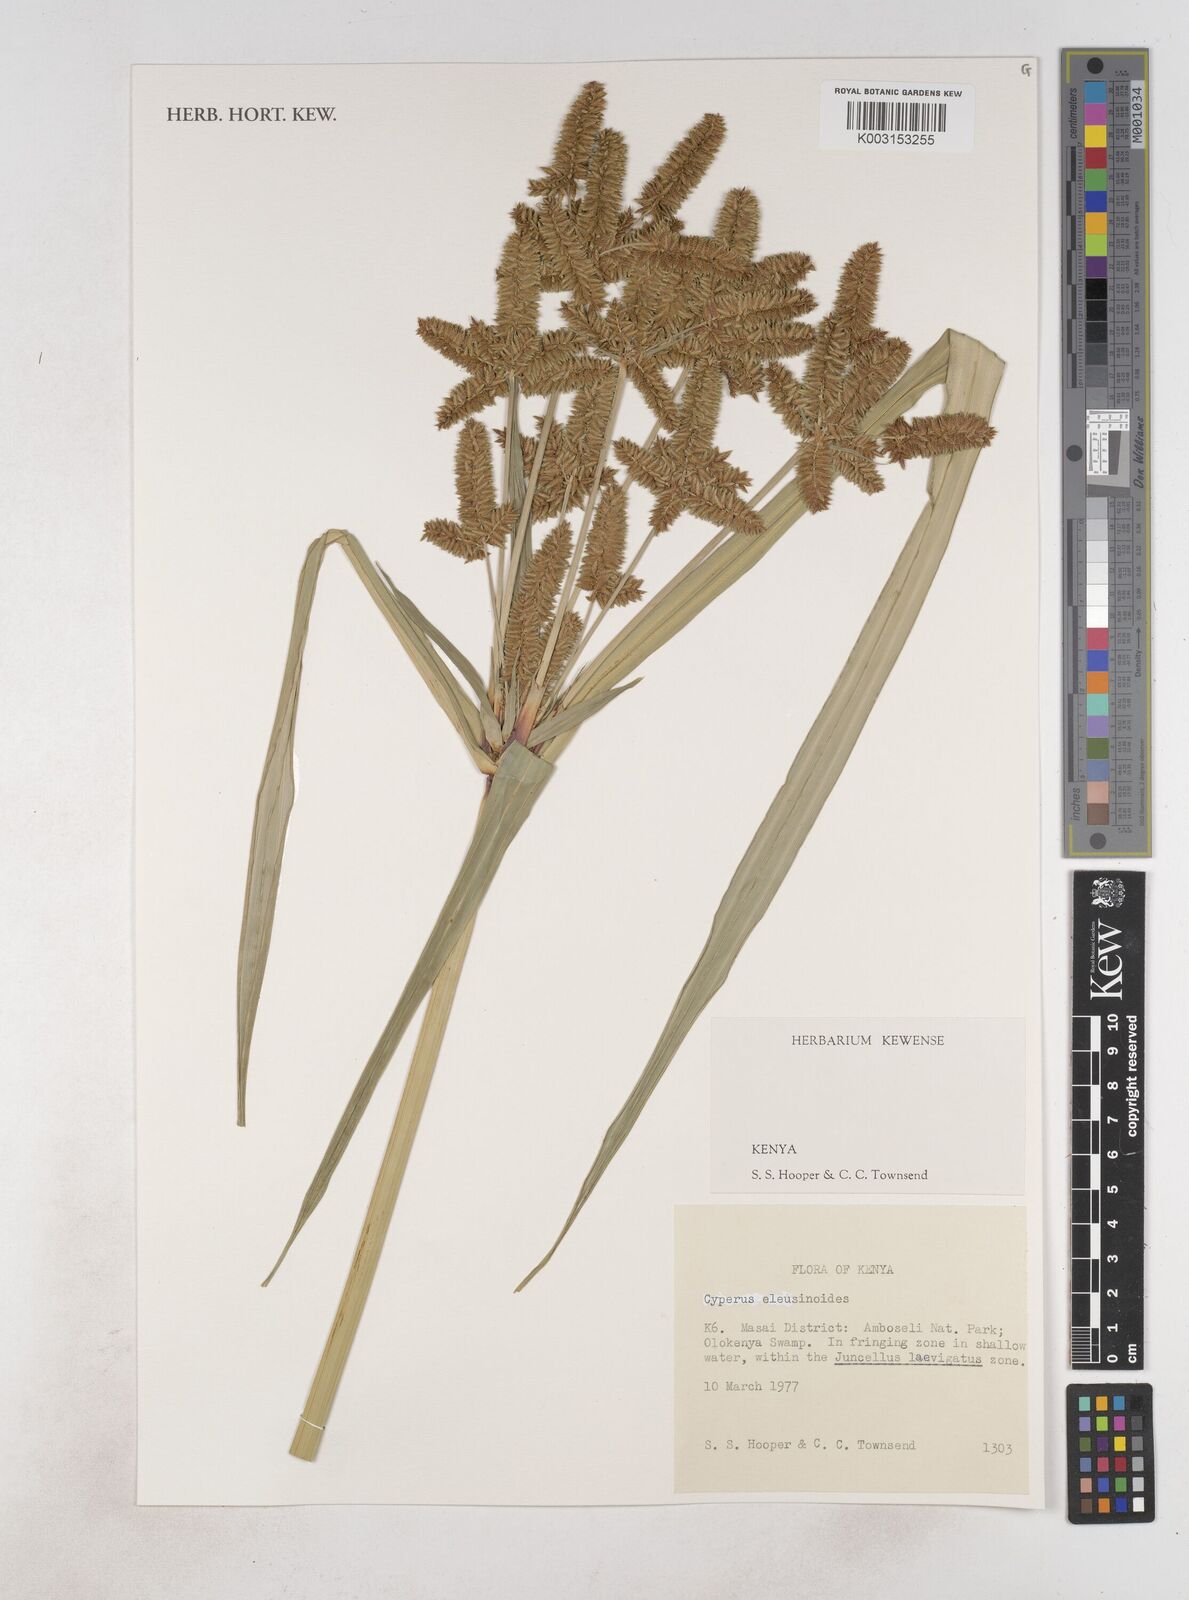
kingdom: Plantae
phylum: Tracheophyta
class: Liliopsida
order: Poales
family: Cyperaceae
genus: Cyperus
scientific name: Cyperus nutans
